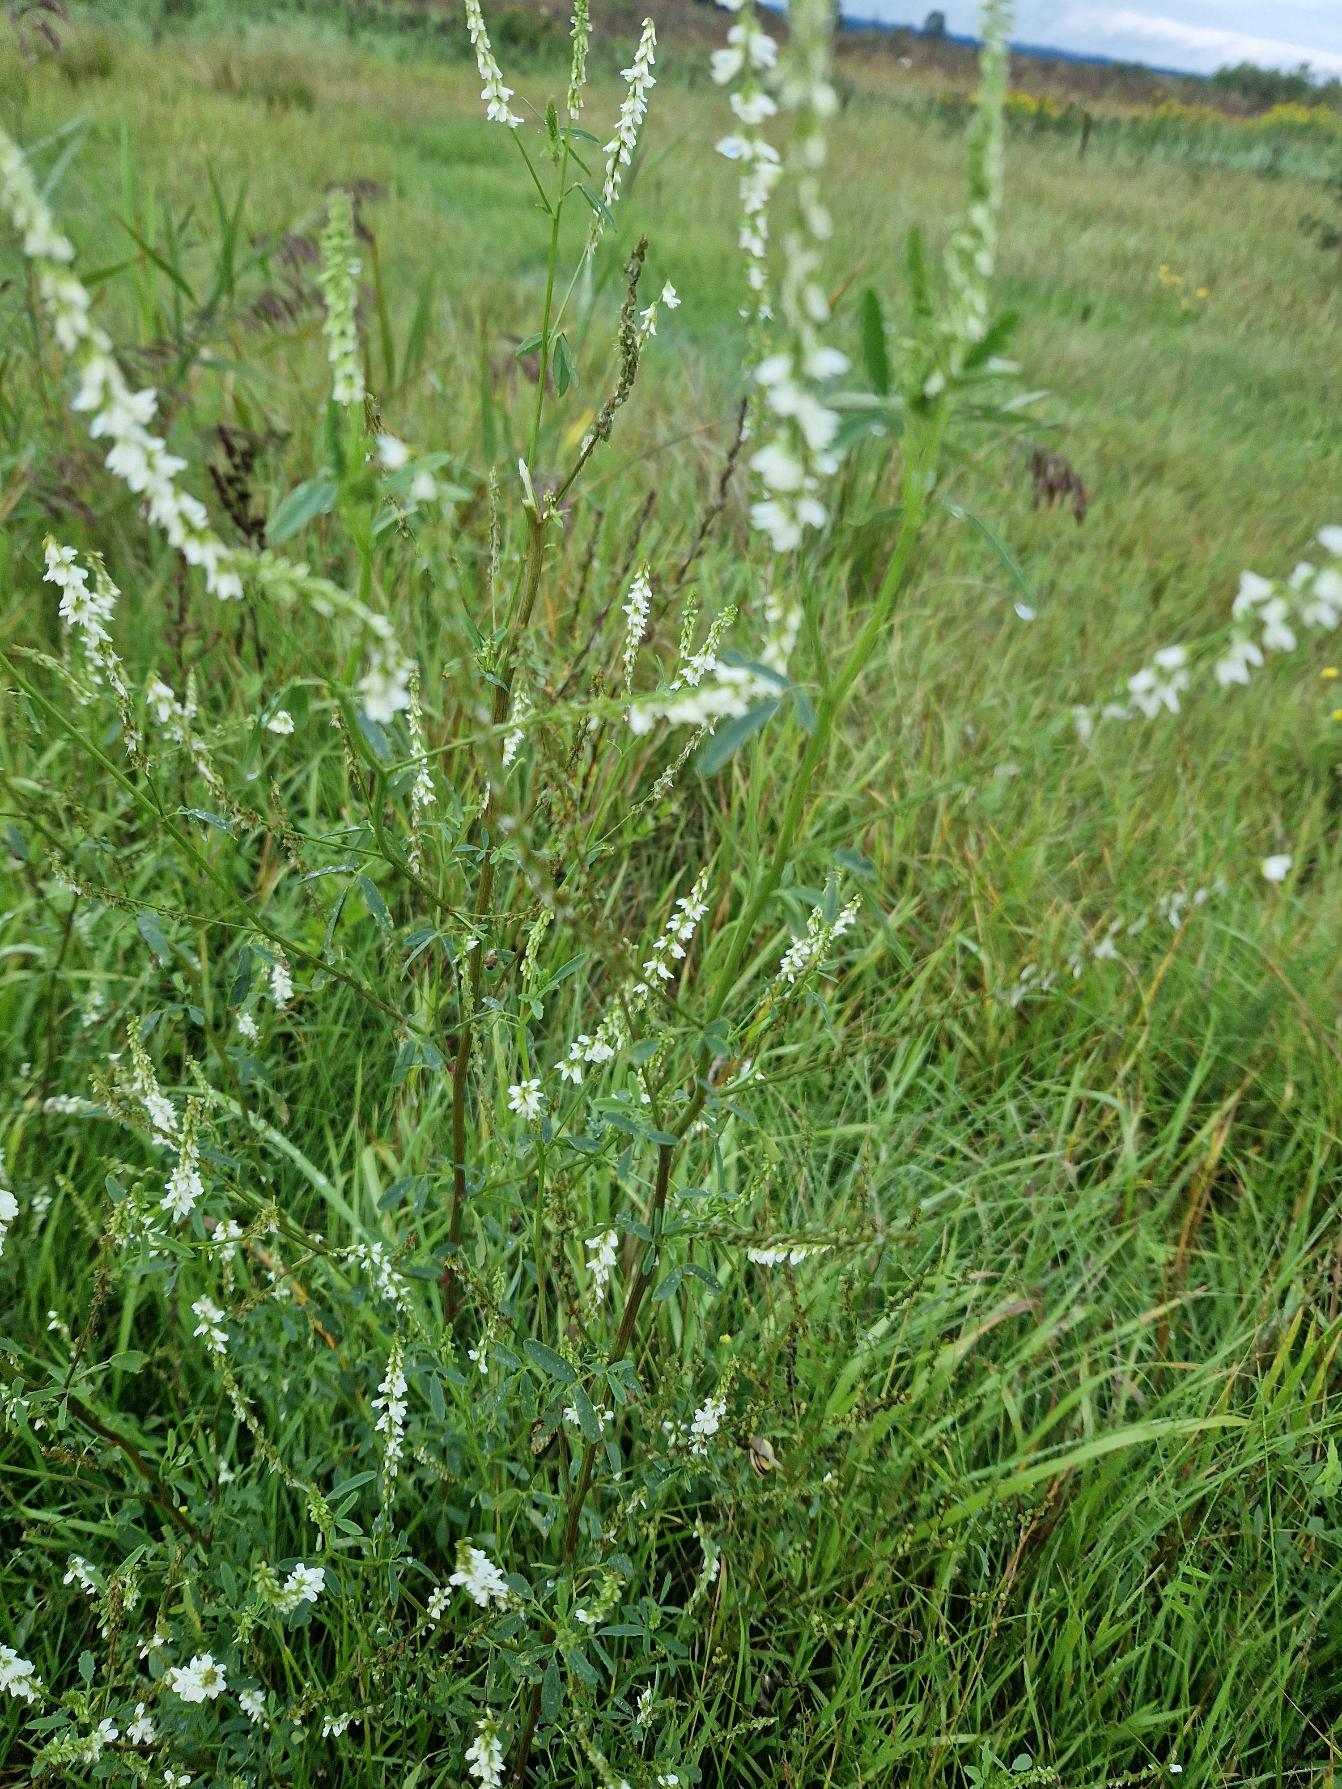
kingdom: Plantae
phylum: Tracheophyta
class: Magnoliopsida
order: Fabales
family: Fabaceae
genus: Melilotus
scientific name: Melilotus albus
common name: Hvid stenkløver
